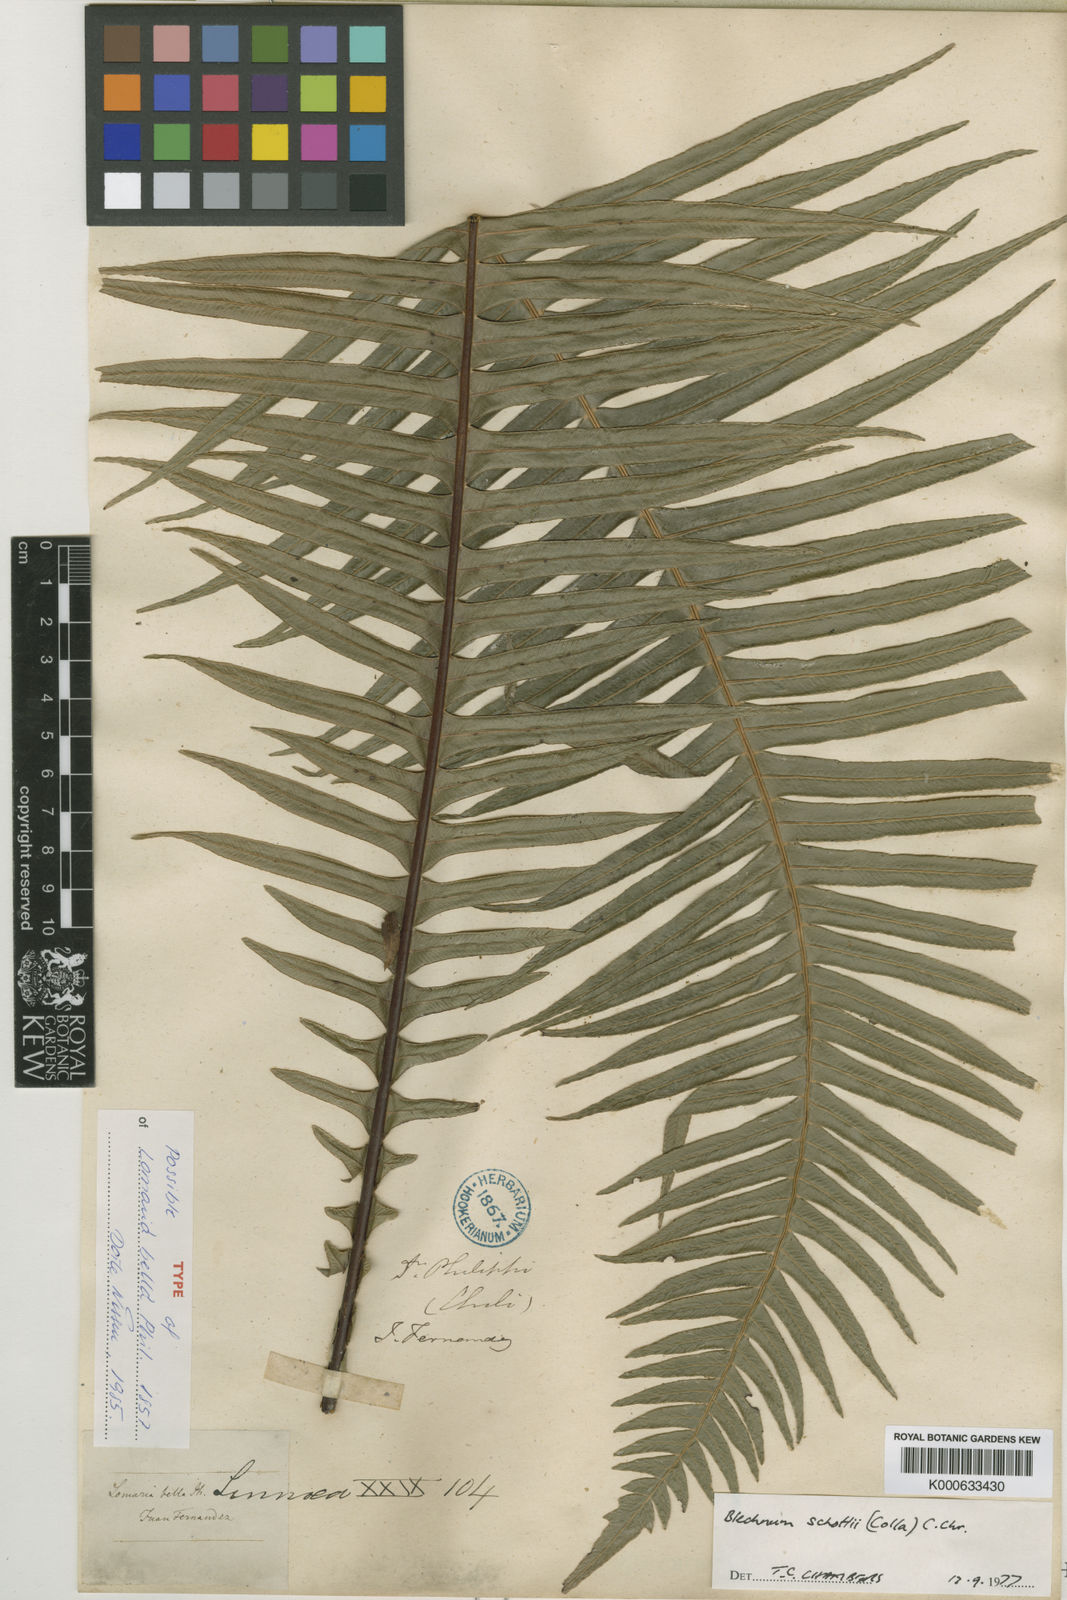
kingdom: Plantae
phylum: Tracheophyta
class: Polypodiopsida
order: Polypodiales
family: Blechnaceae
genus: Lomaridium
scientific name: Lomaridium schottii
